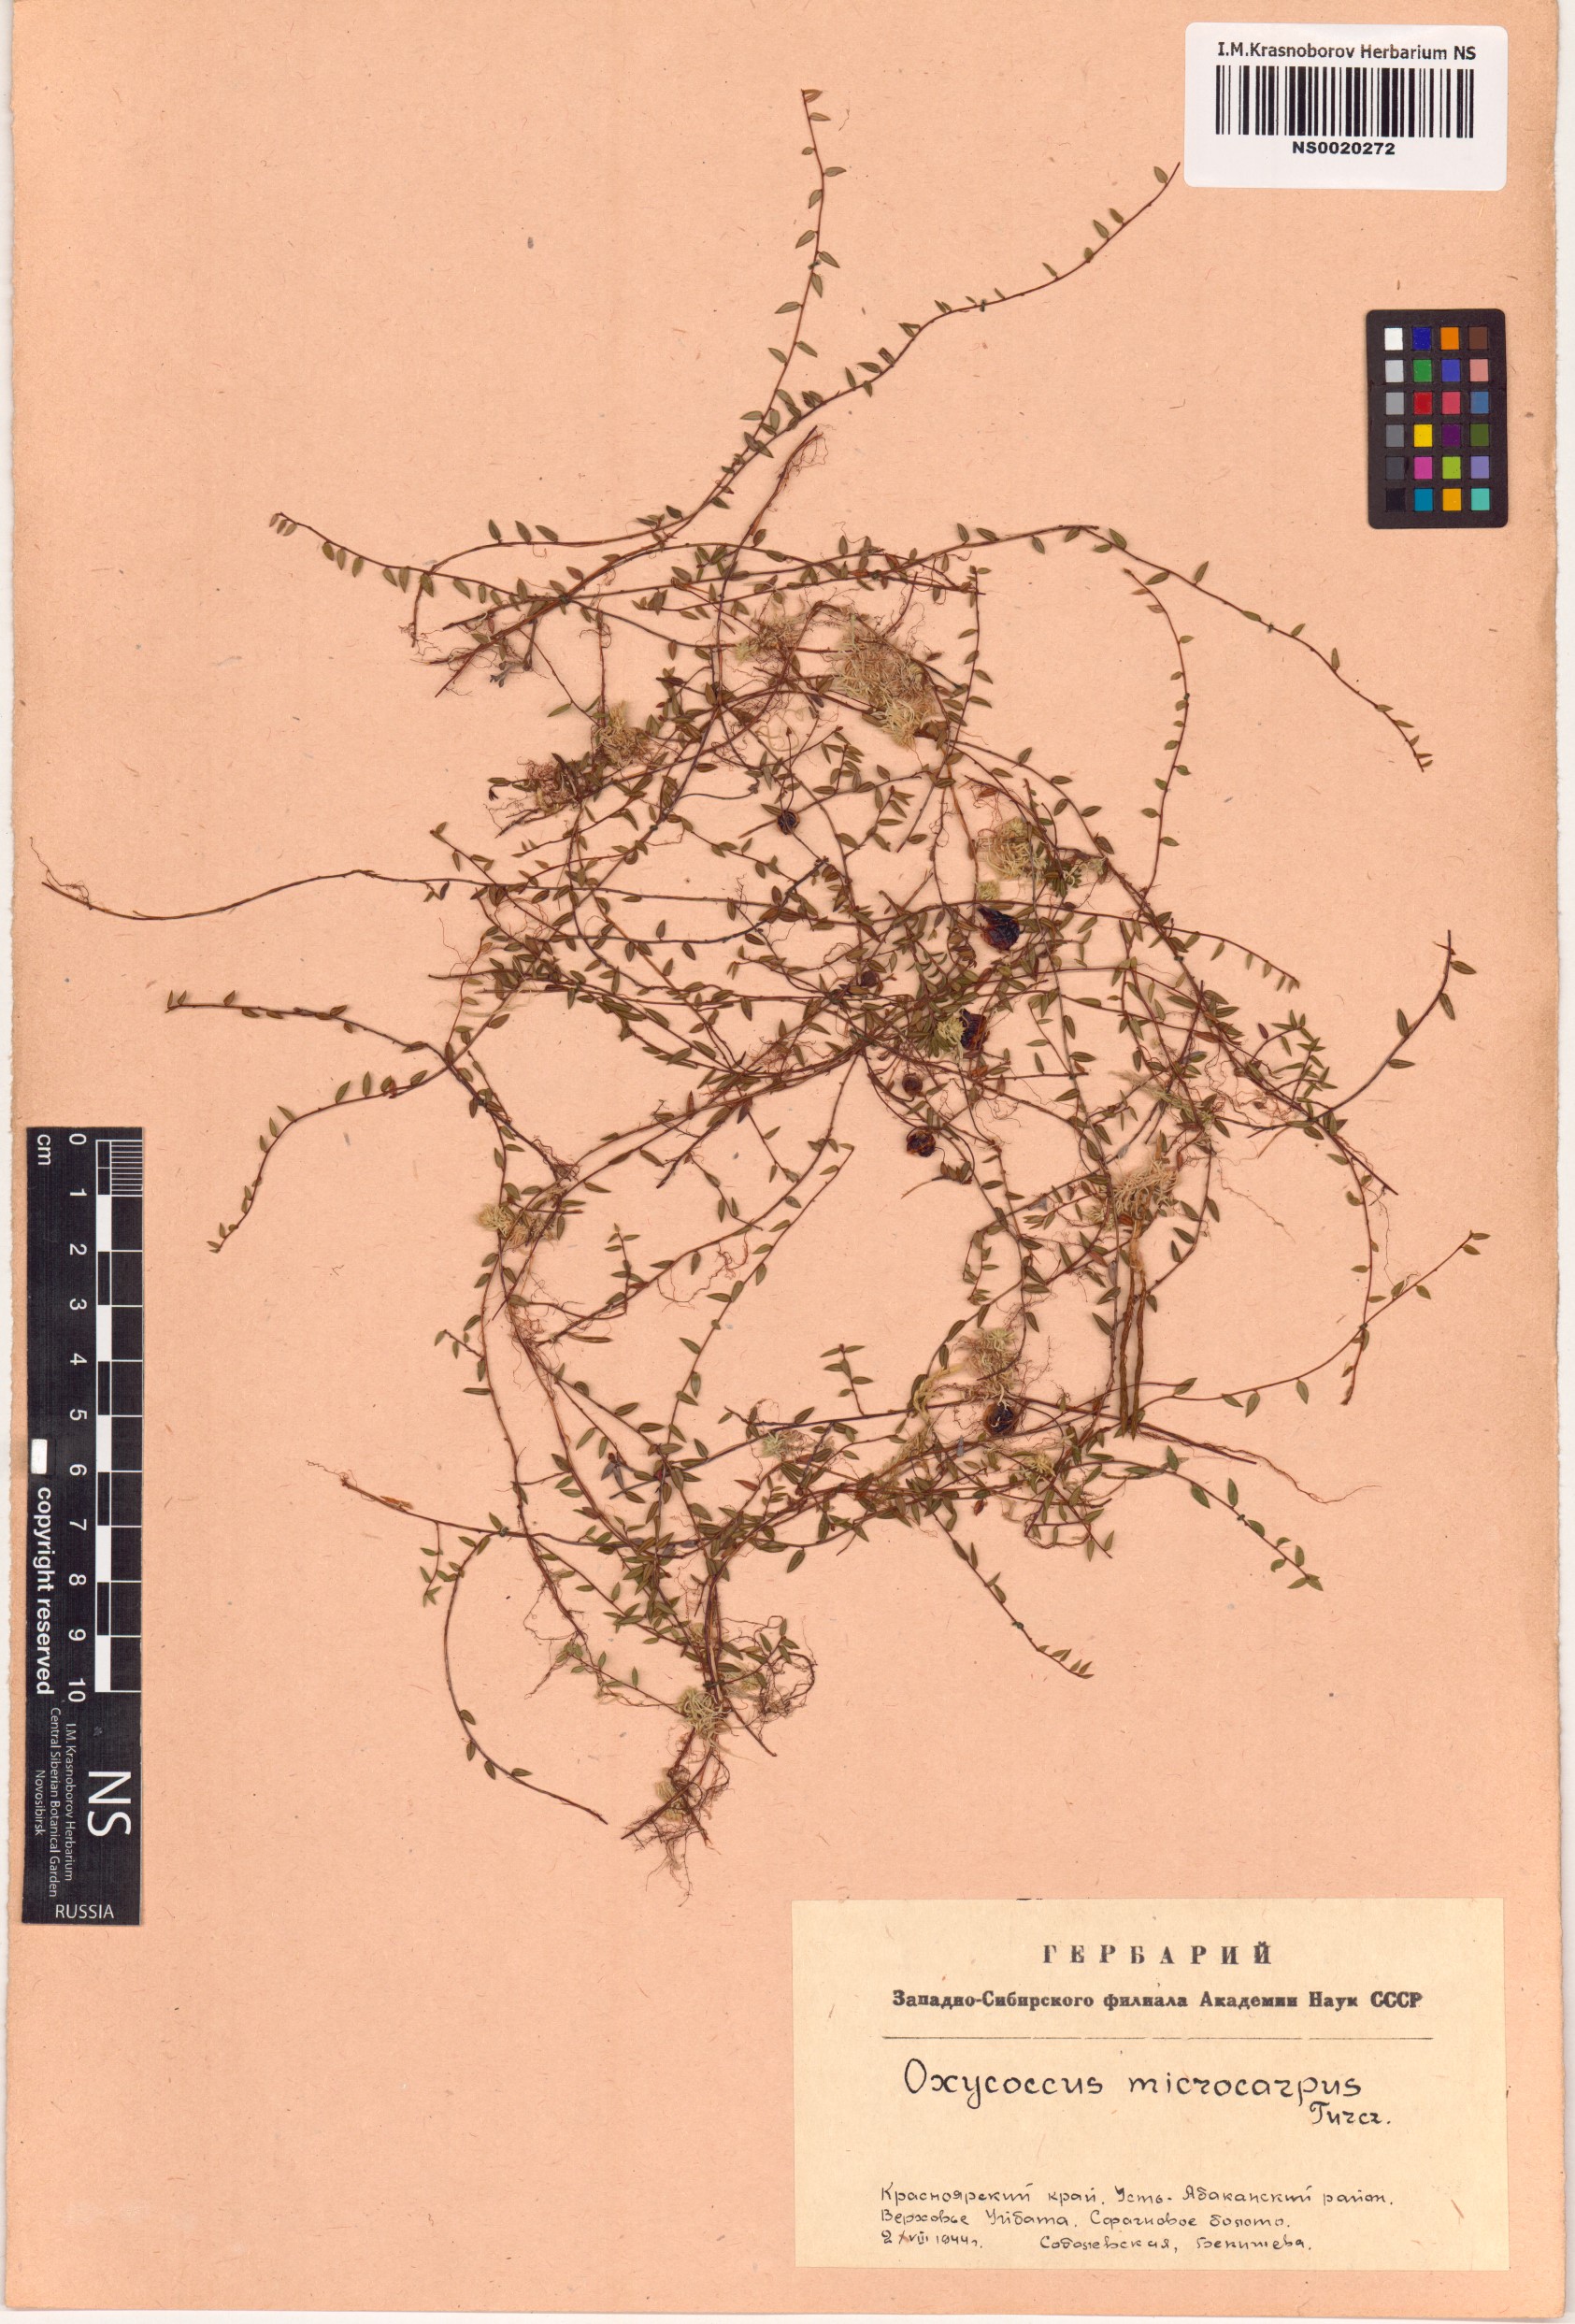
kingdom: Plantae
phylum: Tracheophyta
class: Magnoliopsida
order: Ericales
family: Ericaceae
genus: Vaccinium
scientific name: Vaccinium microcarpum
